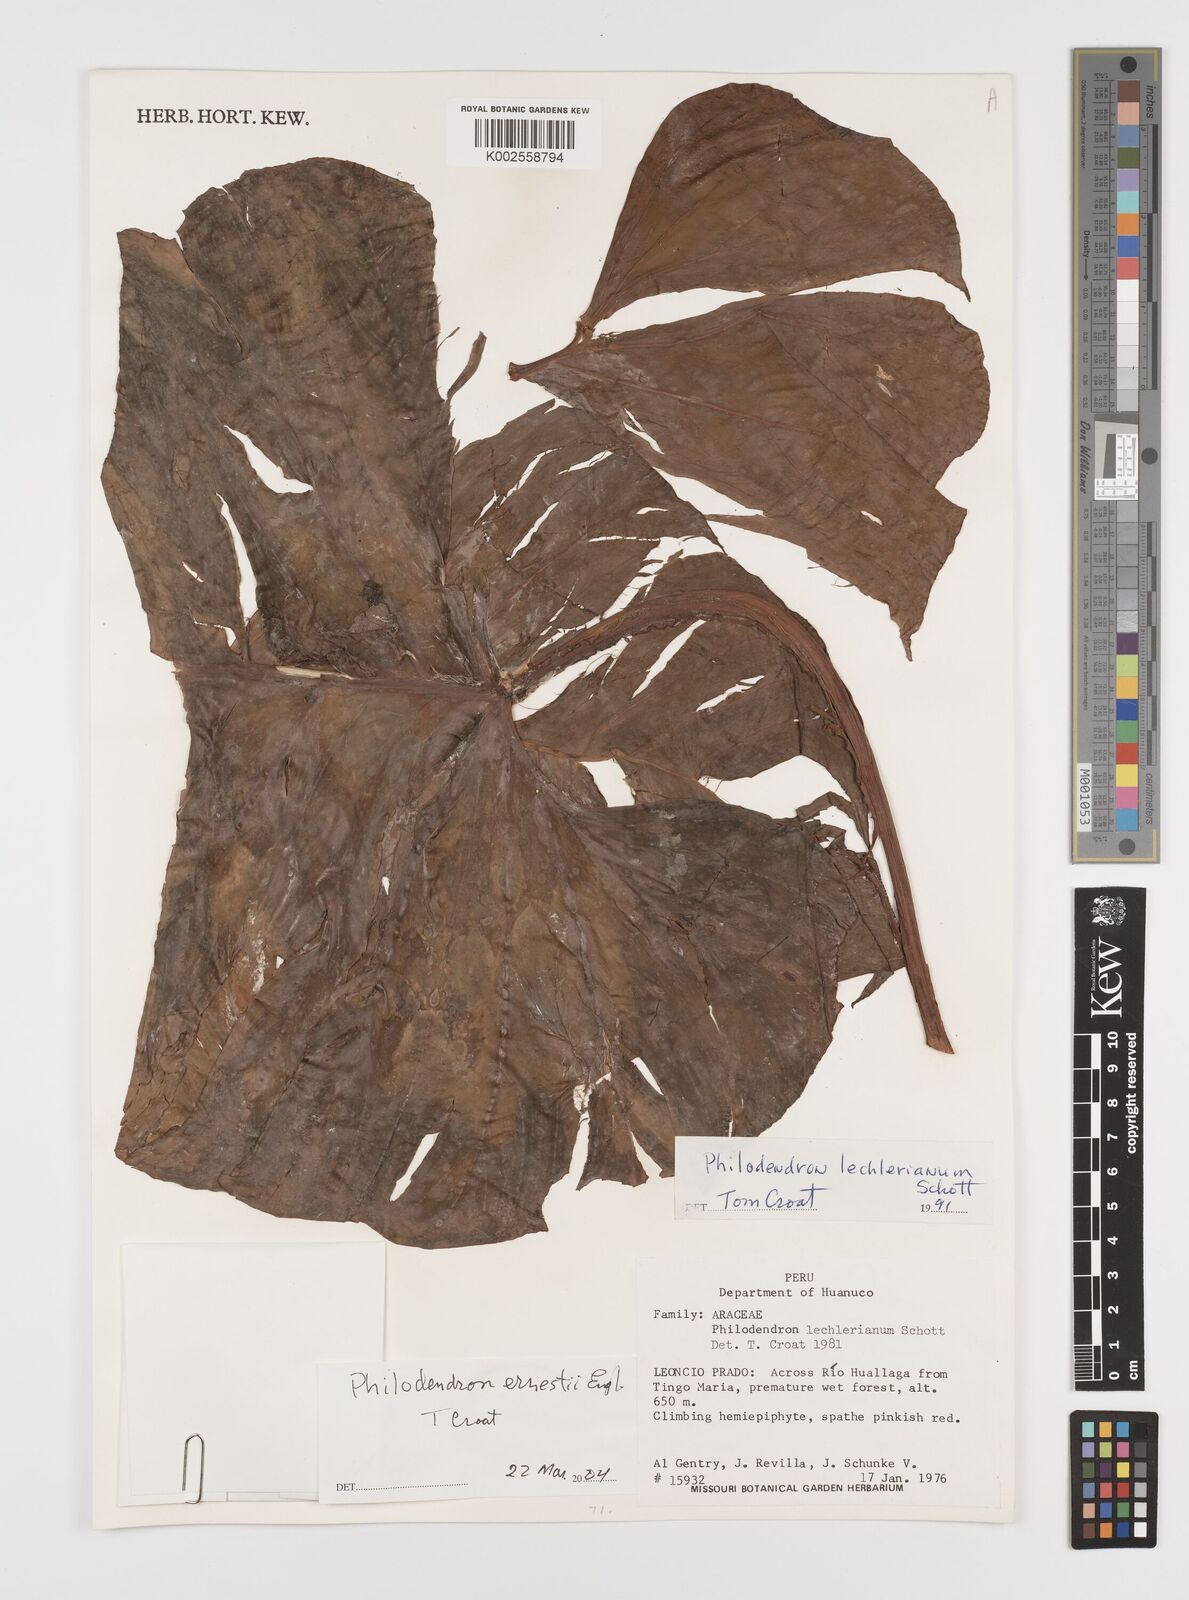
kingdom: Plantae
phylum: Tracheophyta
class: Liliopsida
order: Alismatales
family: Araceae
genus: Philodendron
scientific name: Philodendron ernestii
